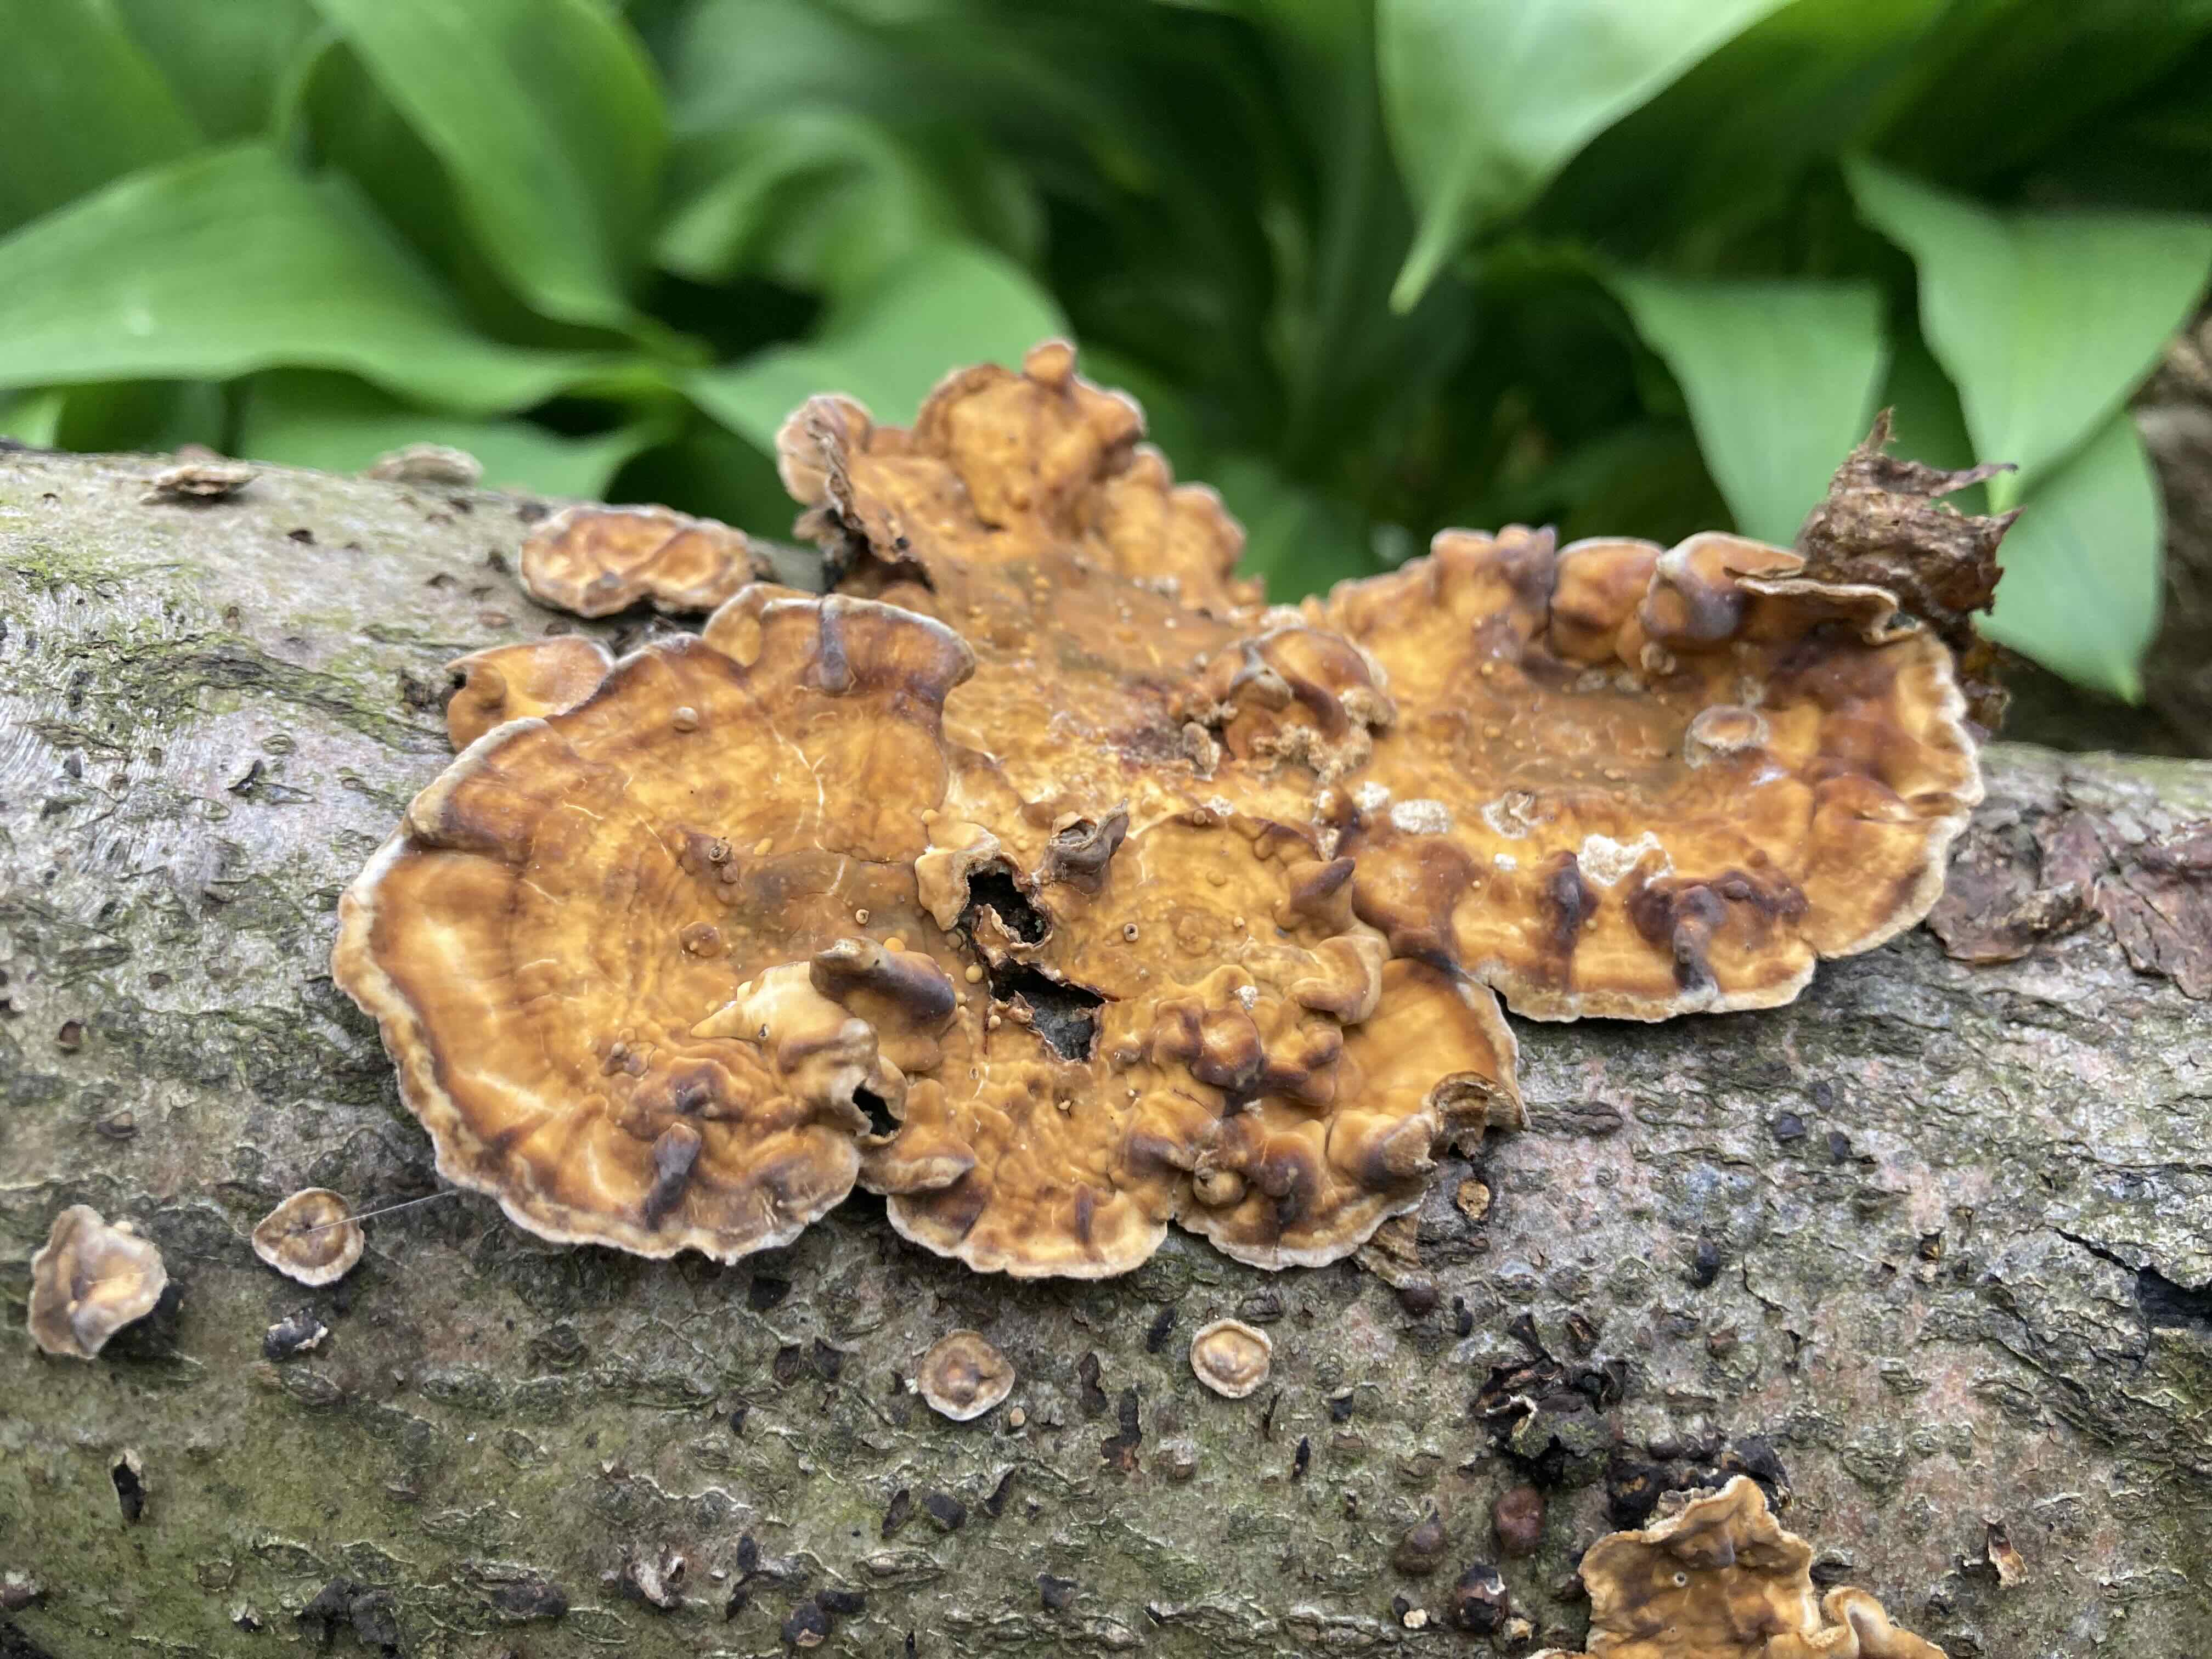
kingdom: Fungi
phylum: Basidiomycota
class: Agaricomycetes
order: Polyporales
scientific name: Polyporales
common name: poresvampordenen
